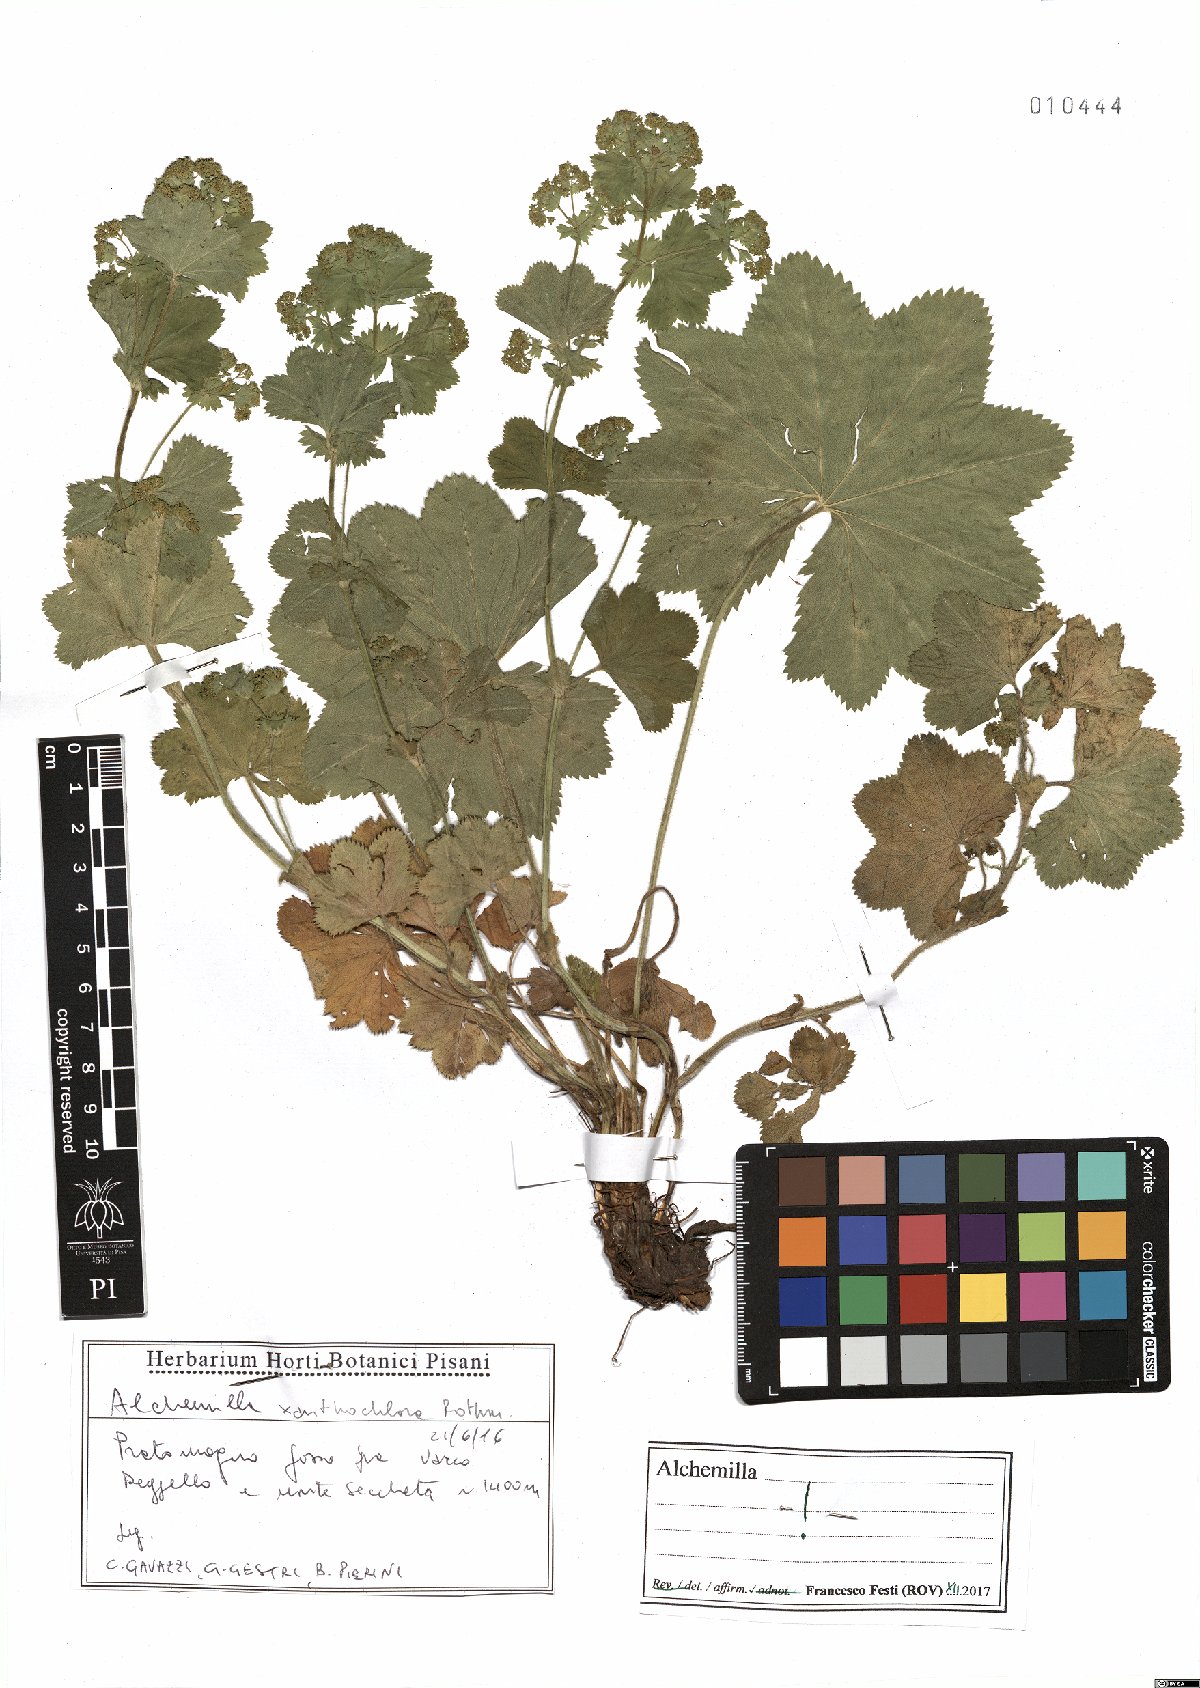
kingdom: Plantae
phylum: Tracheophyta
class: Magnoliopsida
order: Rosales
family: Rosaceae
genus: Alchemilla
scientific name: Alchemilla xanthochlora
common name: Intermediate lady's-mantle
